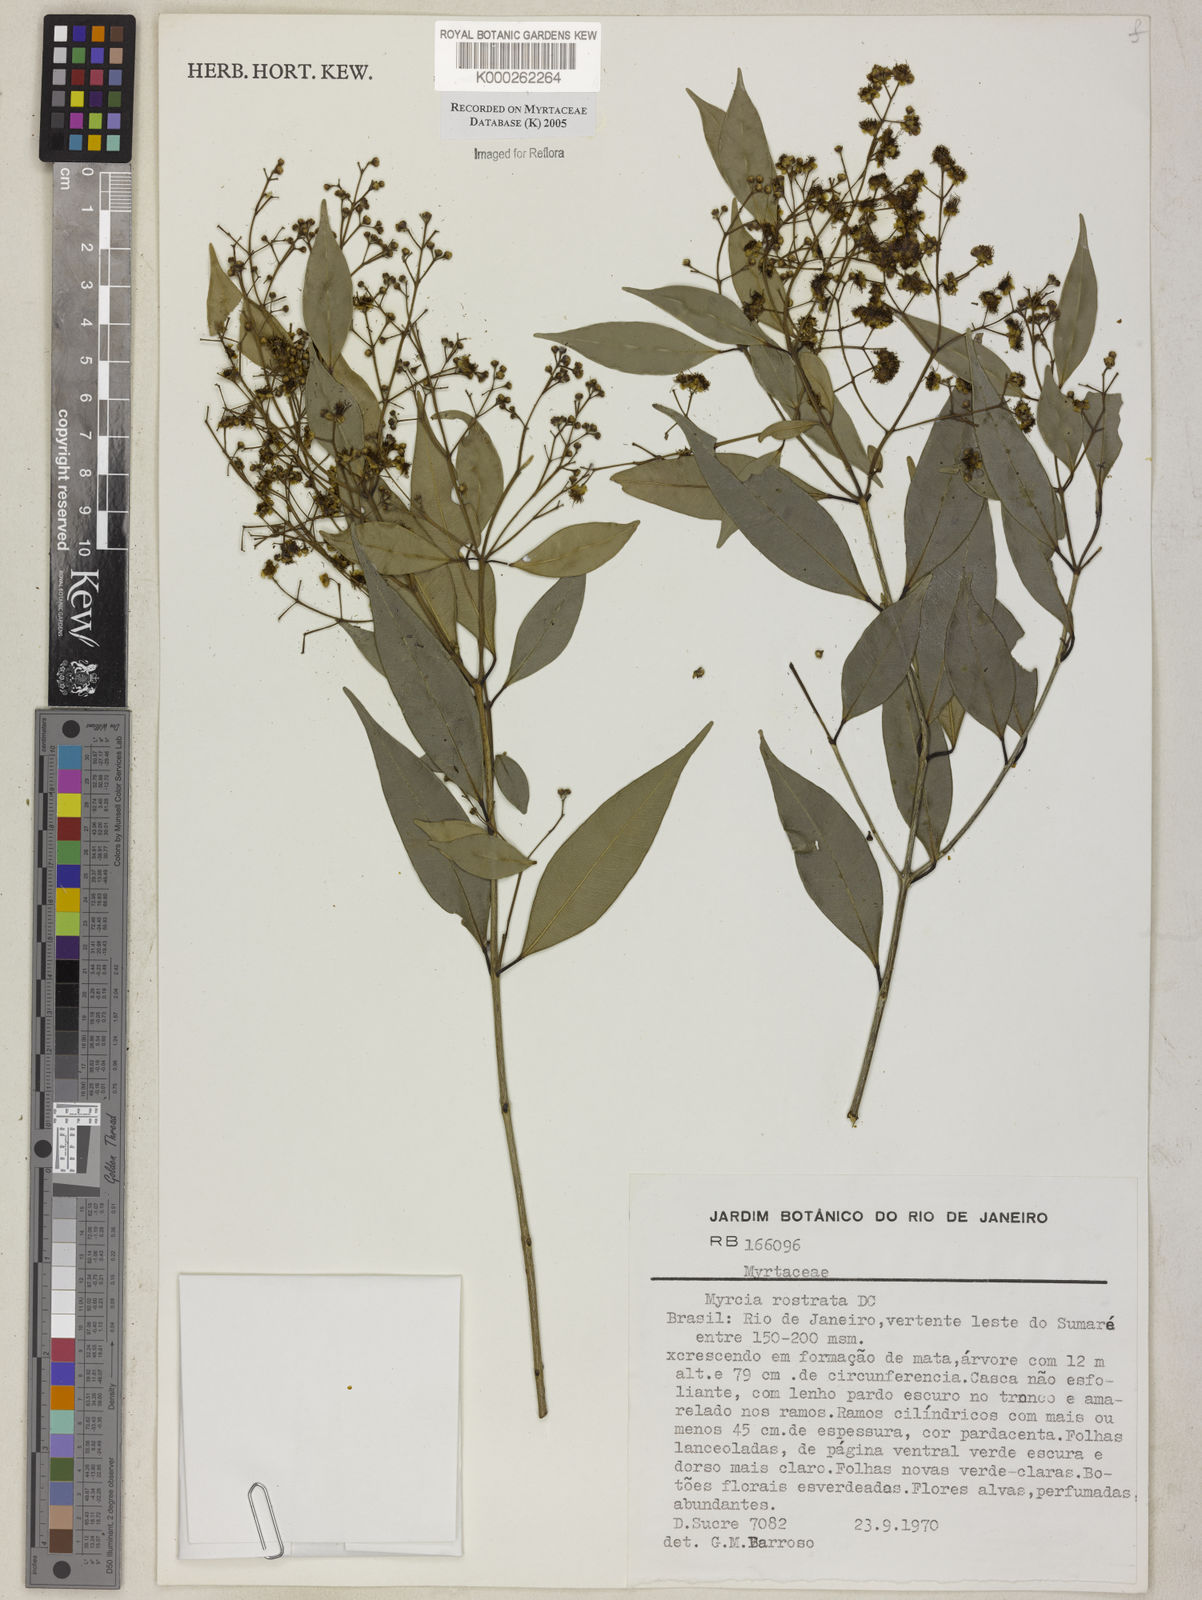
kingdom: Plantae
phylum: Tracheophyta
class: Magnoliopsida
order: Myrtales
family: Myrtaceae
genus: Myrcia
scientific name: Myrcia splendens
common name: Surinam cherry
